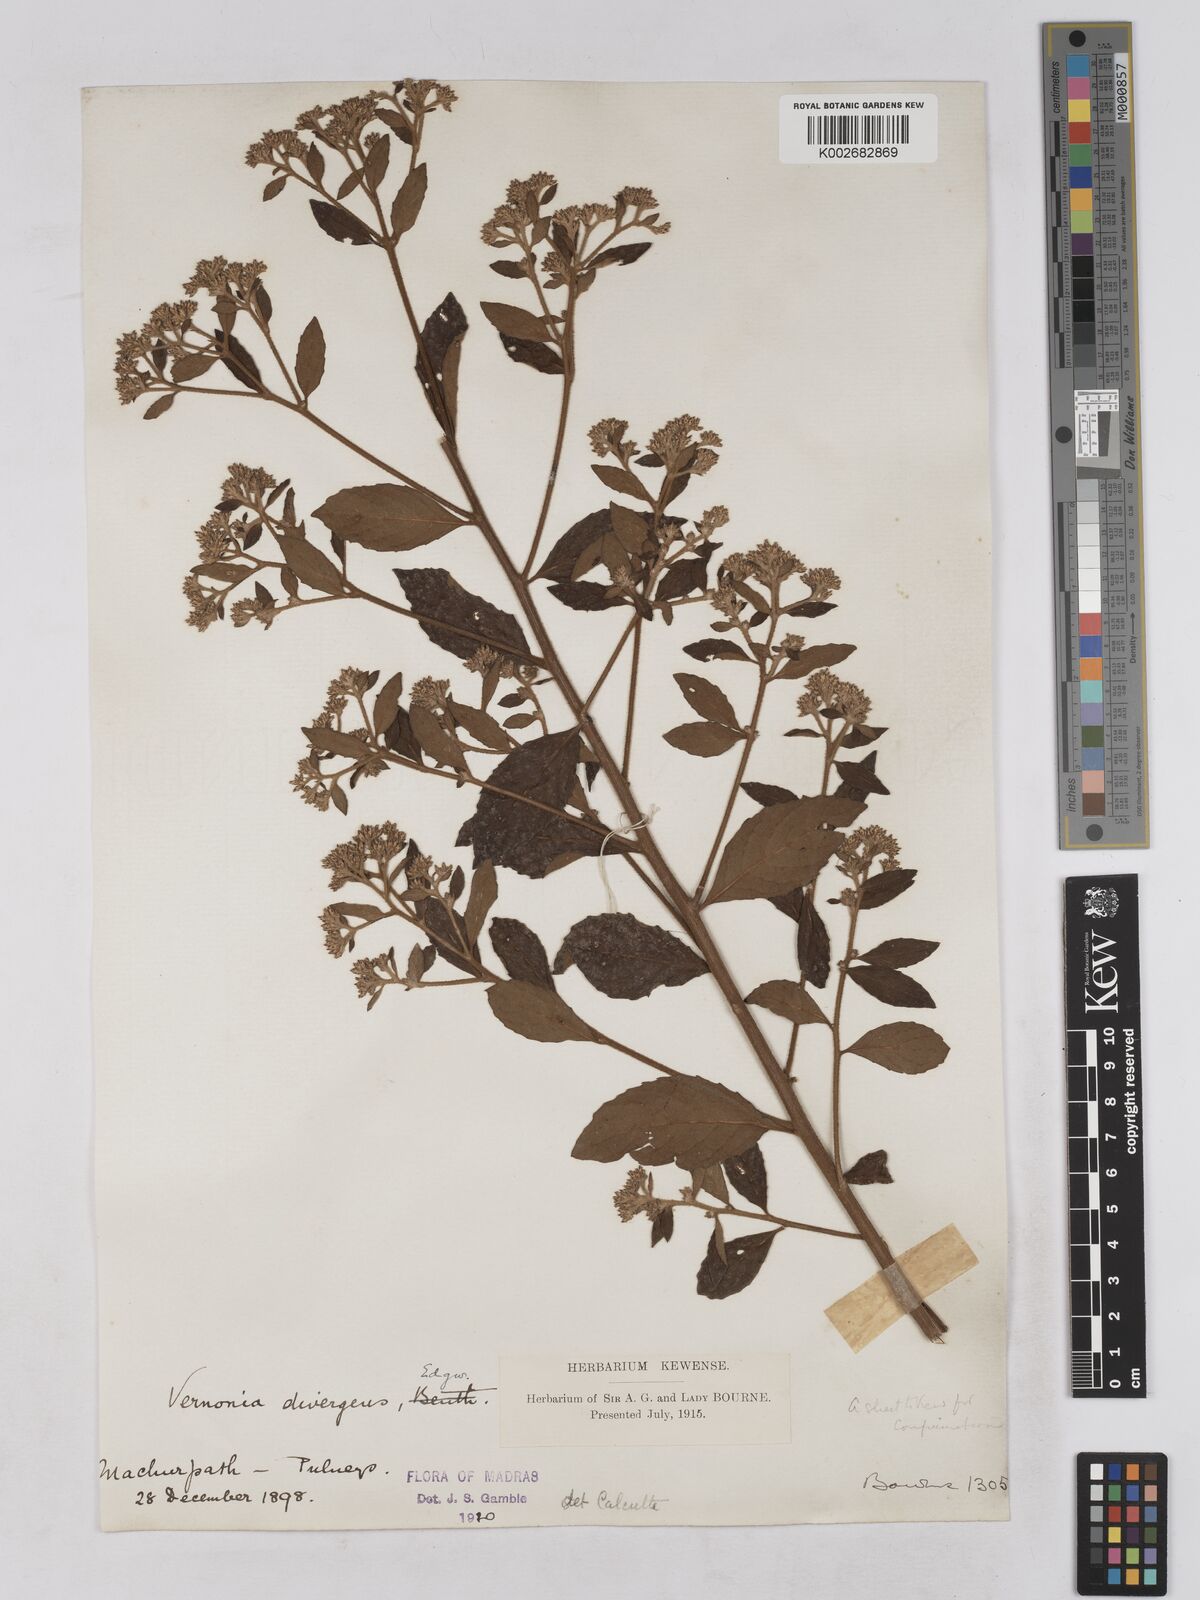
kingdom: Plantae
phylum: Tracheophyta
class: Magnoliopsida
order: Asterales
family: Asteraceae
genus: Acilepis
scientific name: Acilepis divergens
